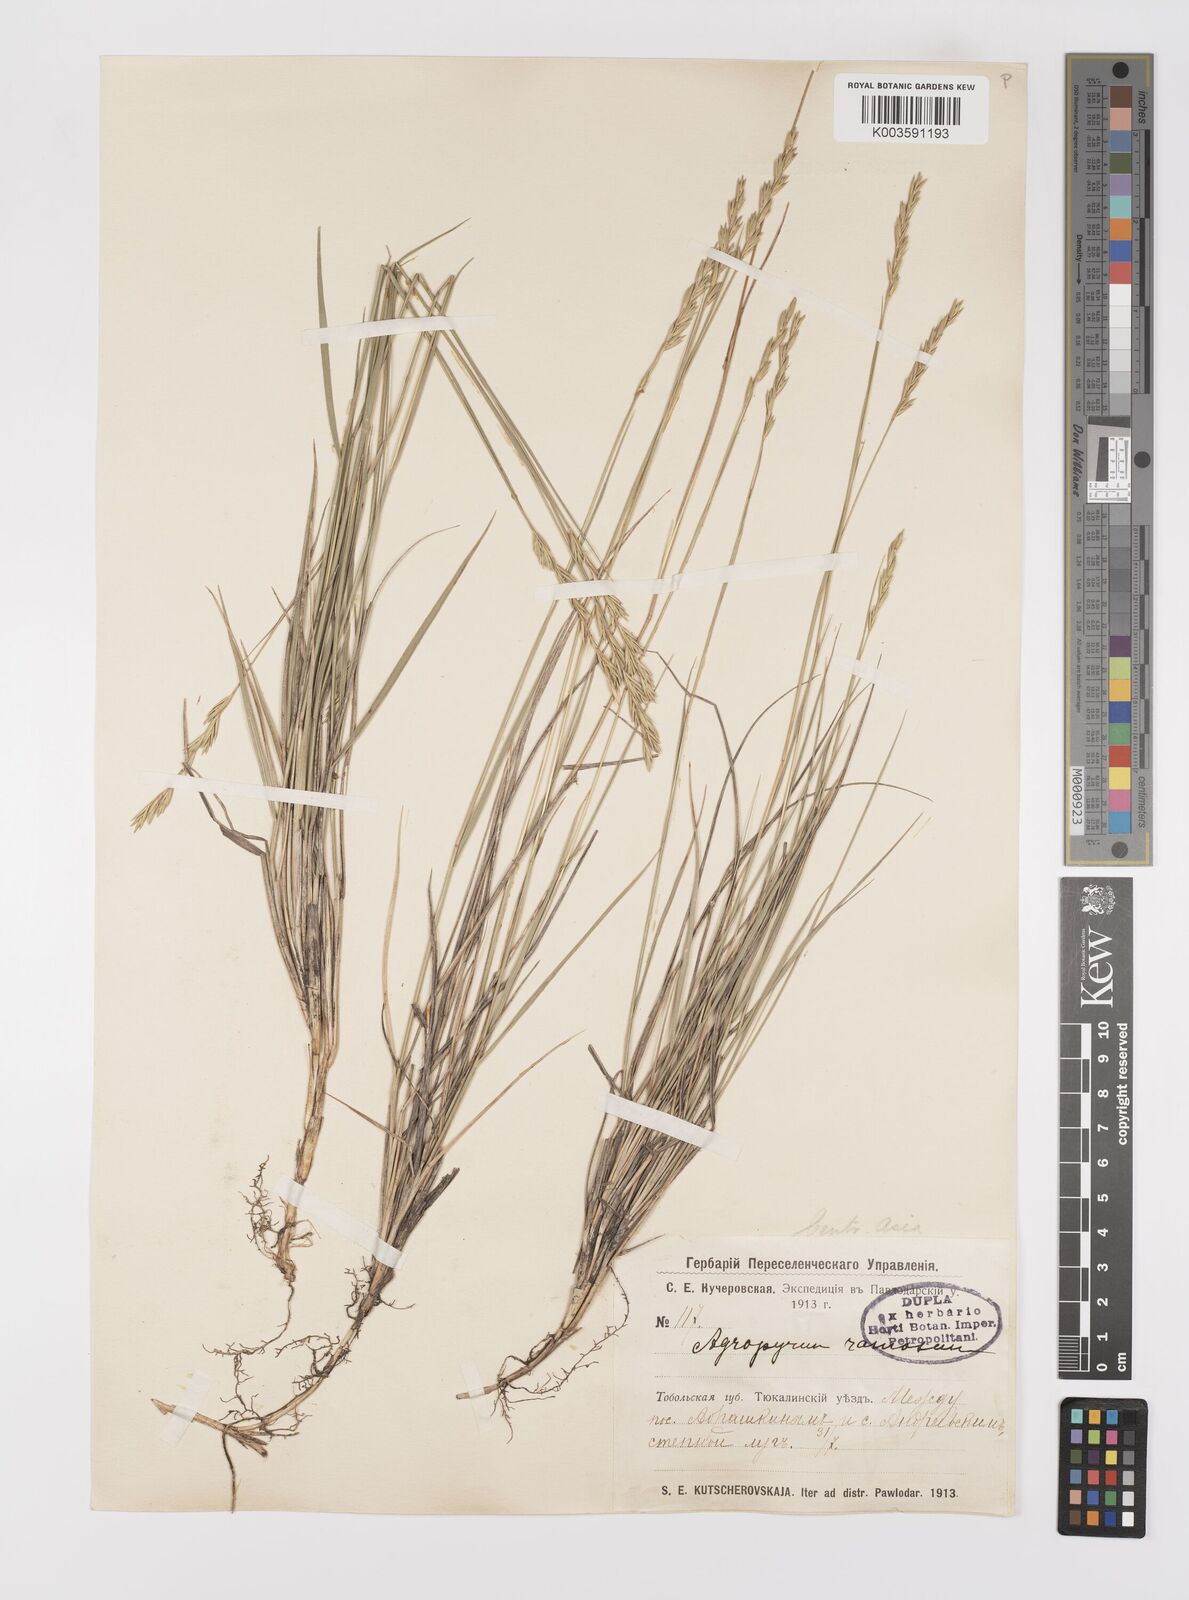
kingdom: Plantae
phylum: Tracheophyta
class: Liliopsida
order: Poales
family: Poaceae
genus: Leymus
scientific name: Leymus ramosus
